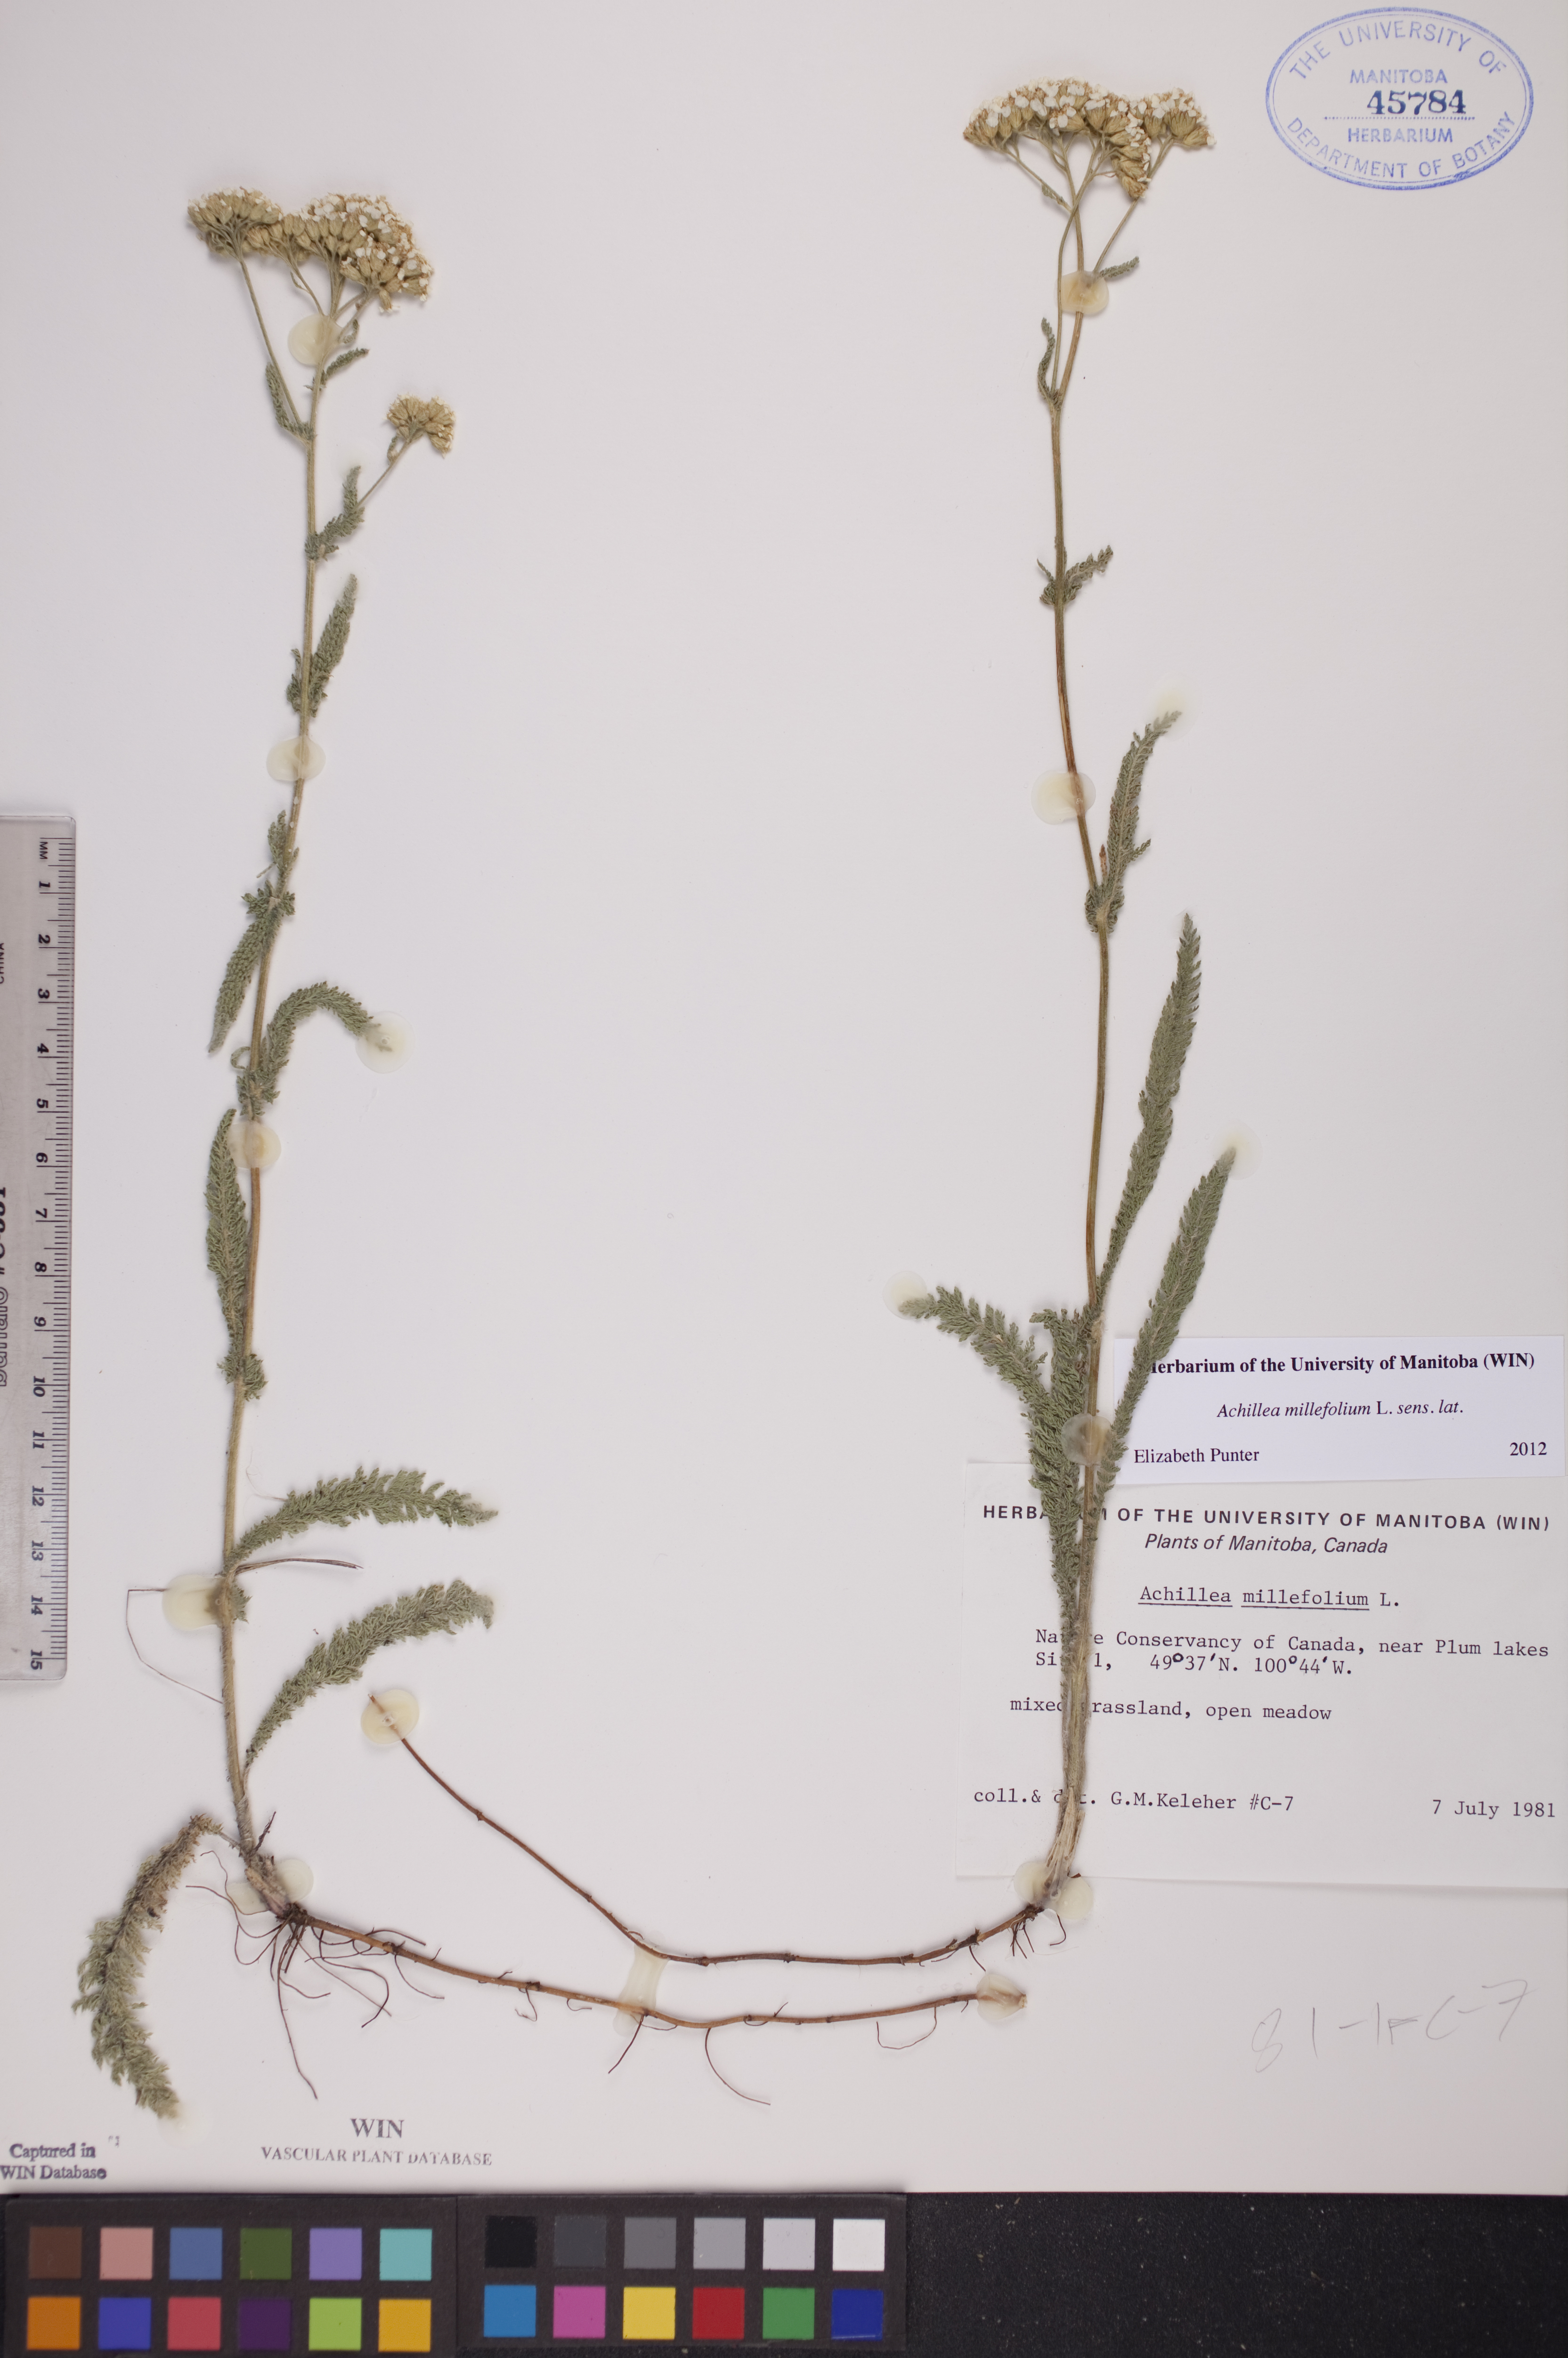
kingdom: Plantae
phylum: Tracheophyta
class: Magnoliopsida
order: Asterales
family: Asteraceae
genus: Achillea
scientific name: Achillea millefolium
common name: Yarrow
